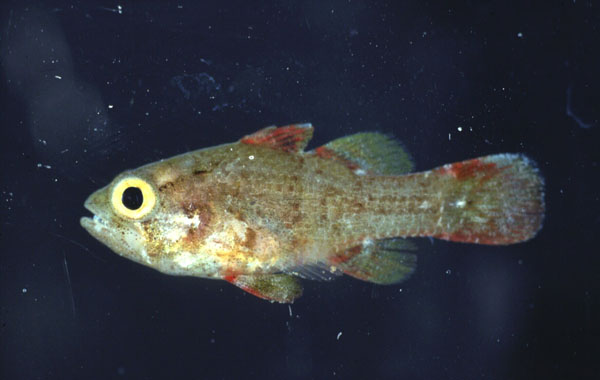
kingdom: Animalia
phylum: Chordata
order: Perciformes
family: Apogonidae
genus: Apogonichthys
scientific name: Apogonichthys perdix
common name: Perdix cardinalfish
